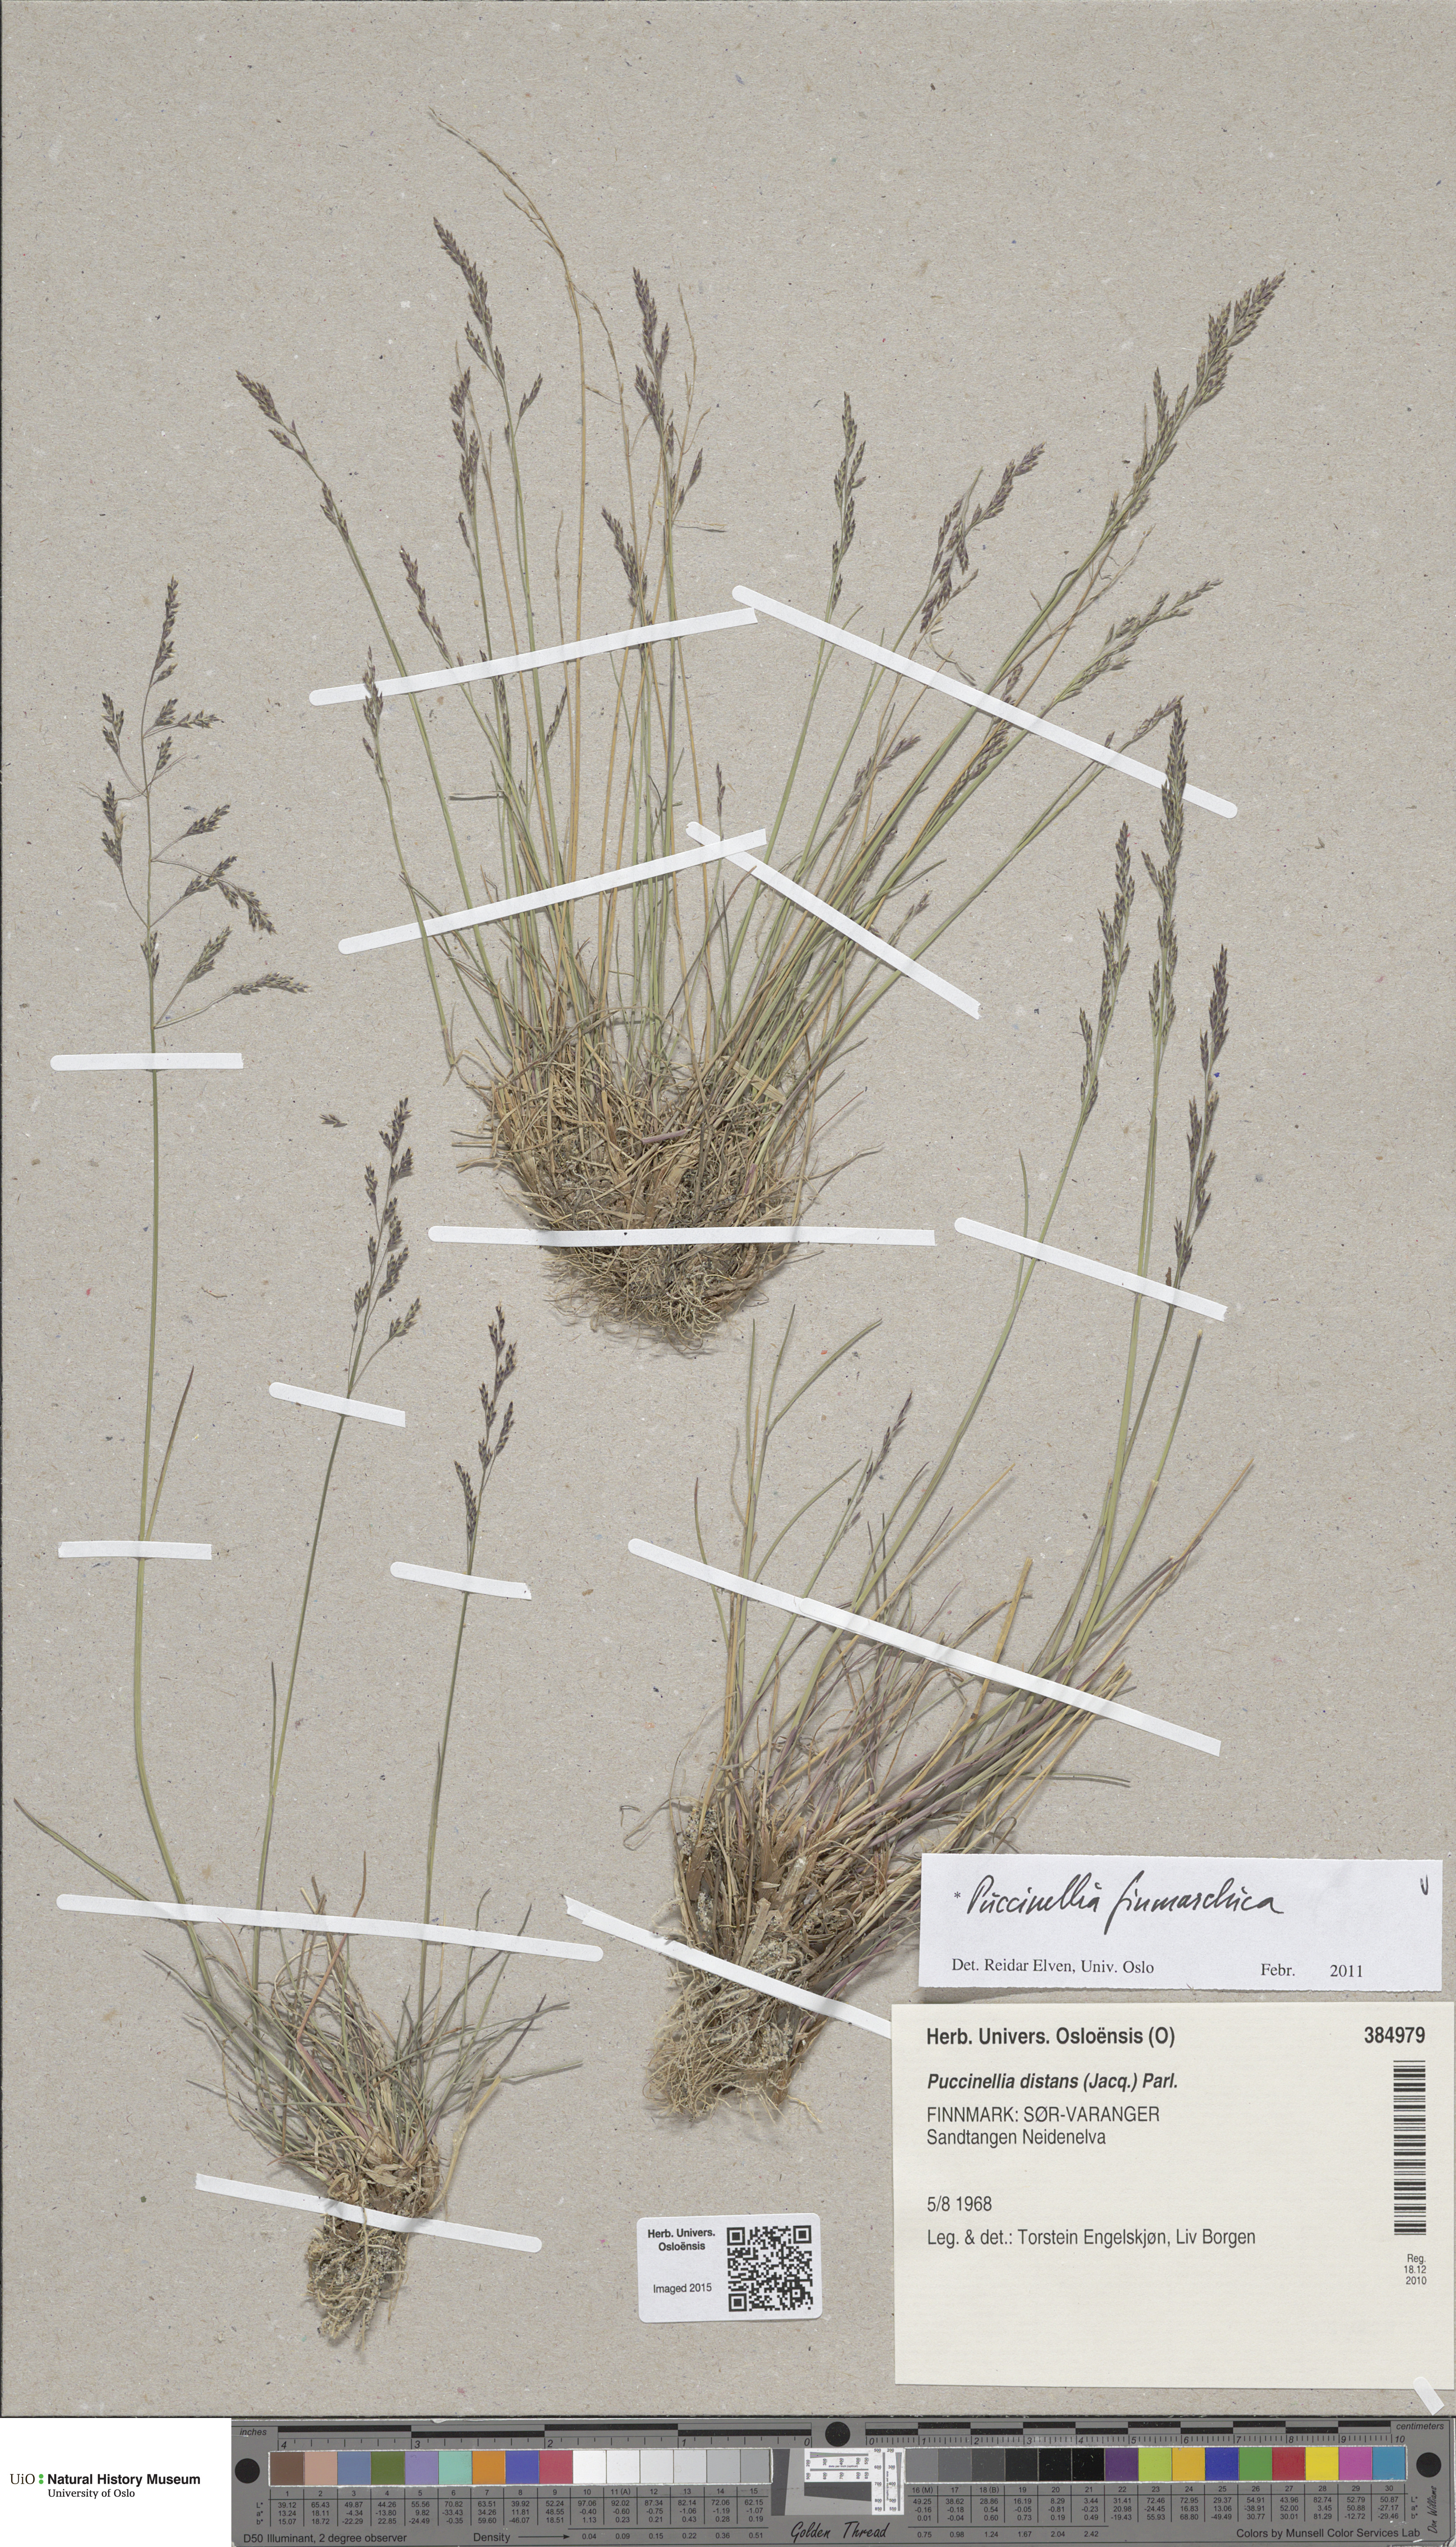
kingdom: Plantae
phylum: Tracheophyta
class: Liliopsida
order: Poales
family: Poaceae
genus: Puccinellia
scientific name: Puccinellia finmarchica
